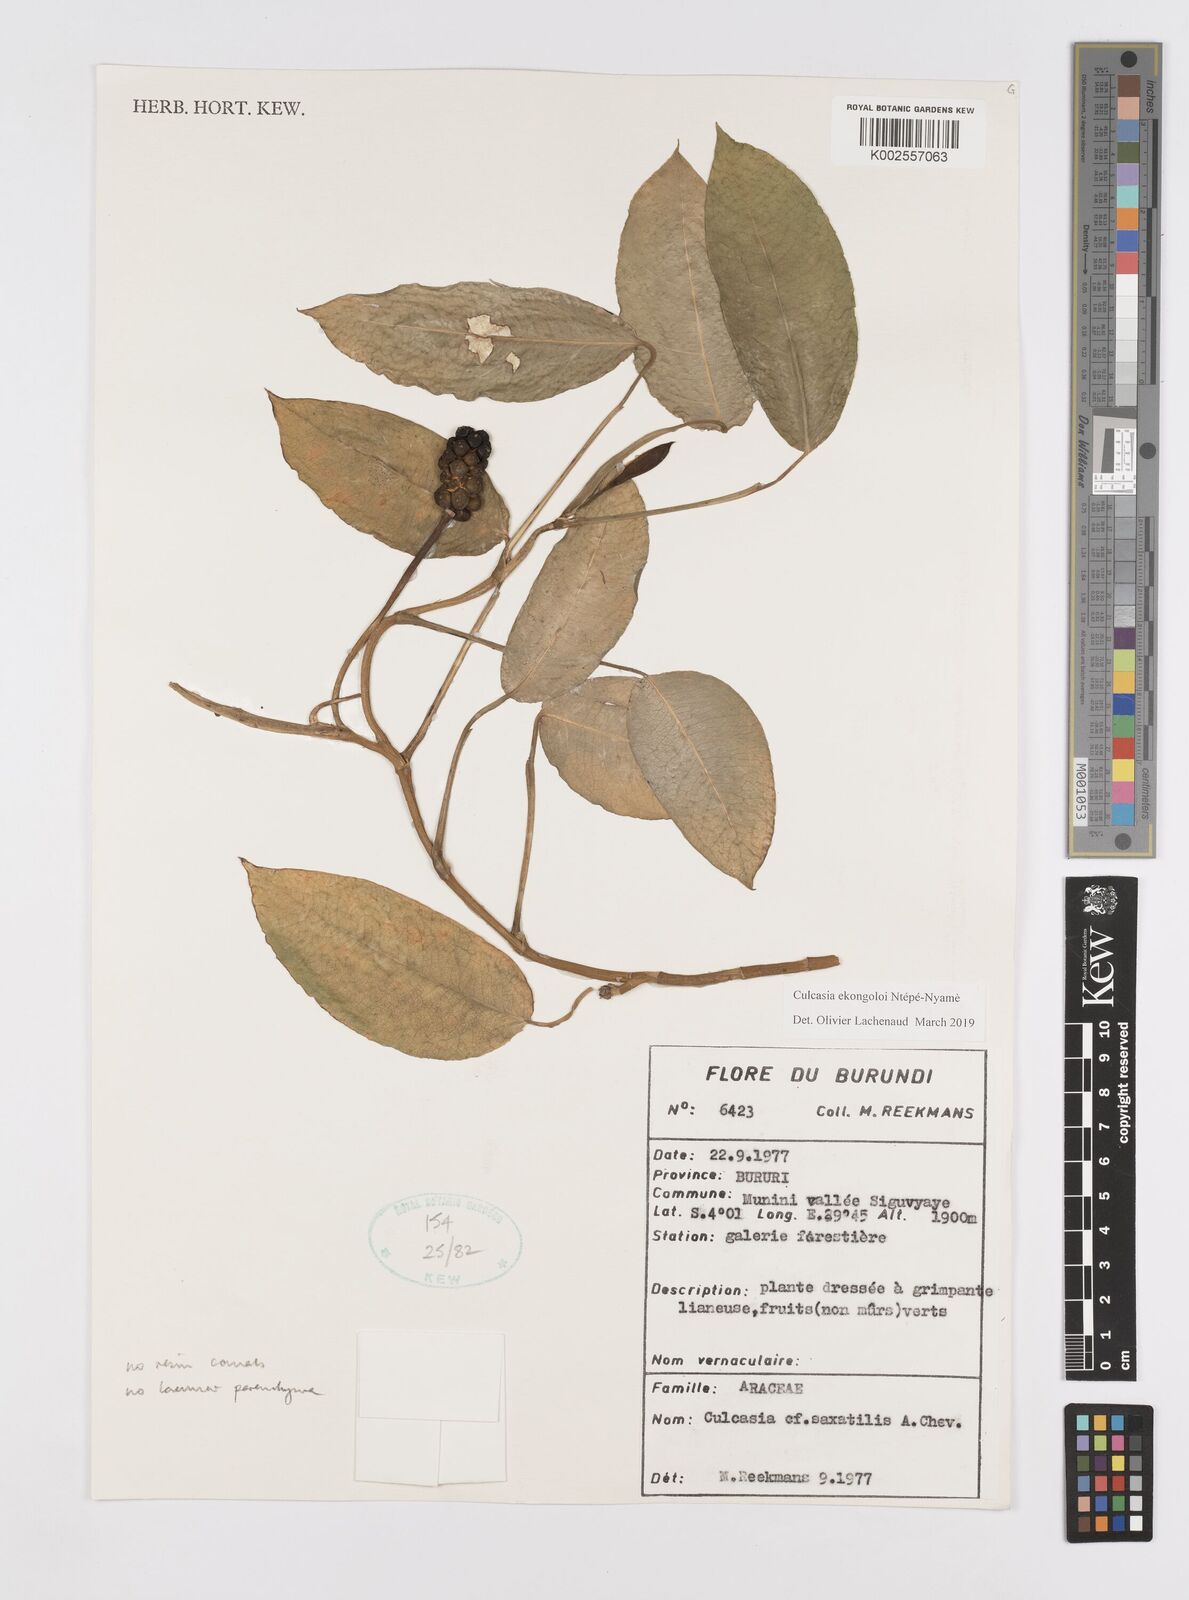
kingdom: Plantae
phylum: Tracheophyta
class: Liliopsida
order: Alismatales
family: Araceae
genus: Culcasia
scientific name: Culcasia ekongoloi
